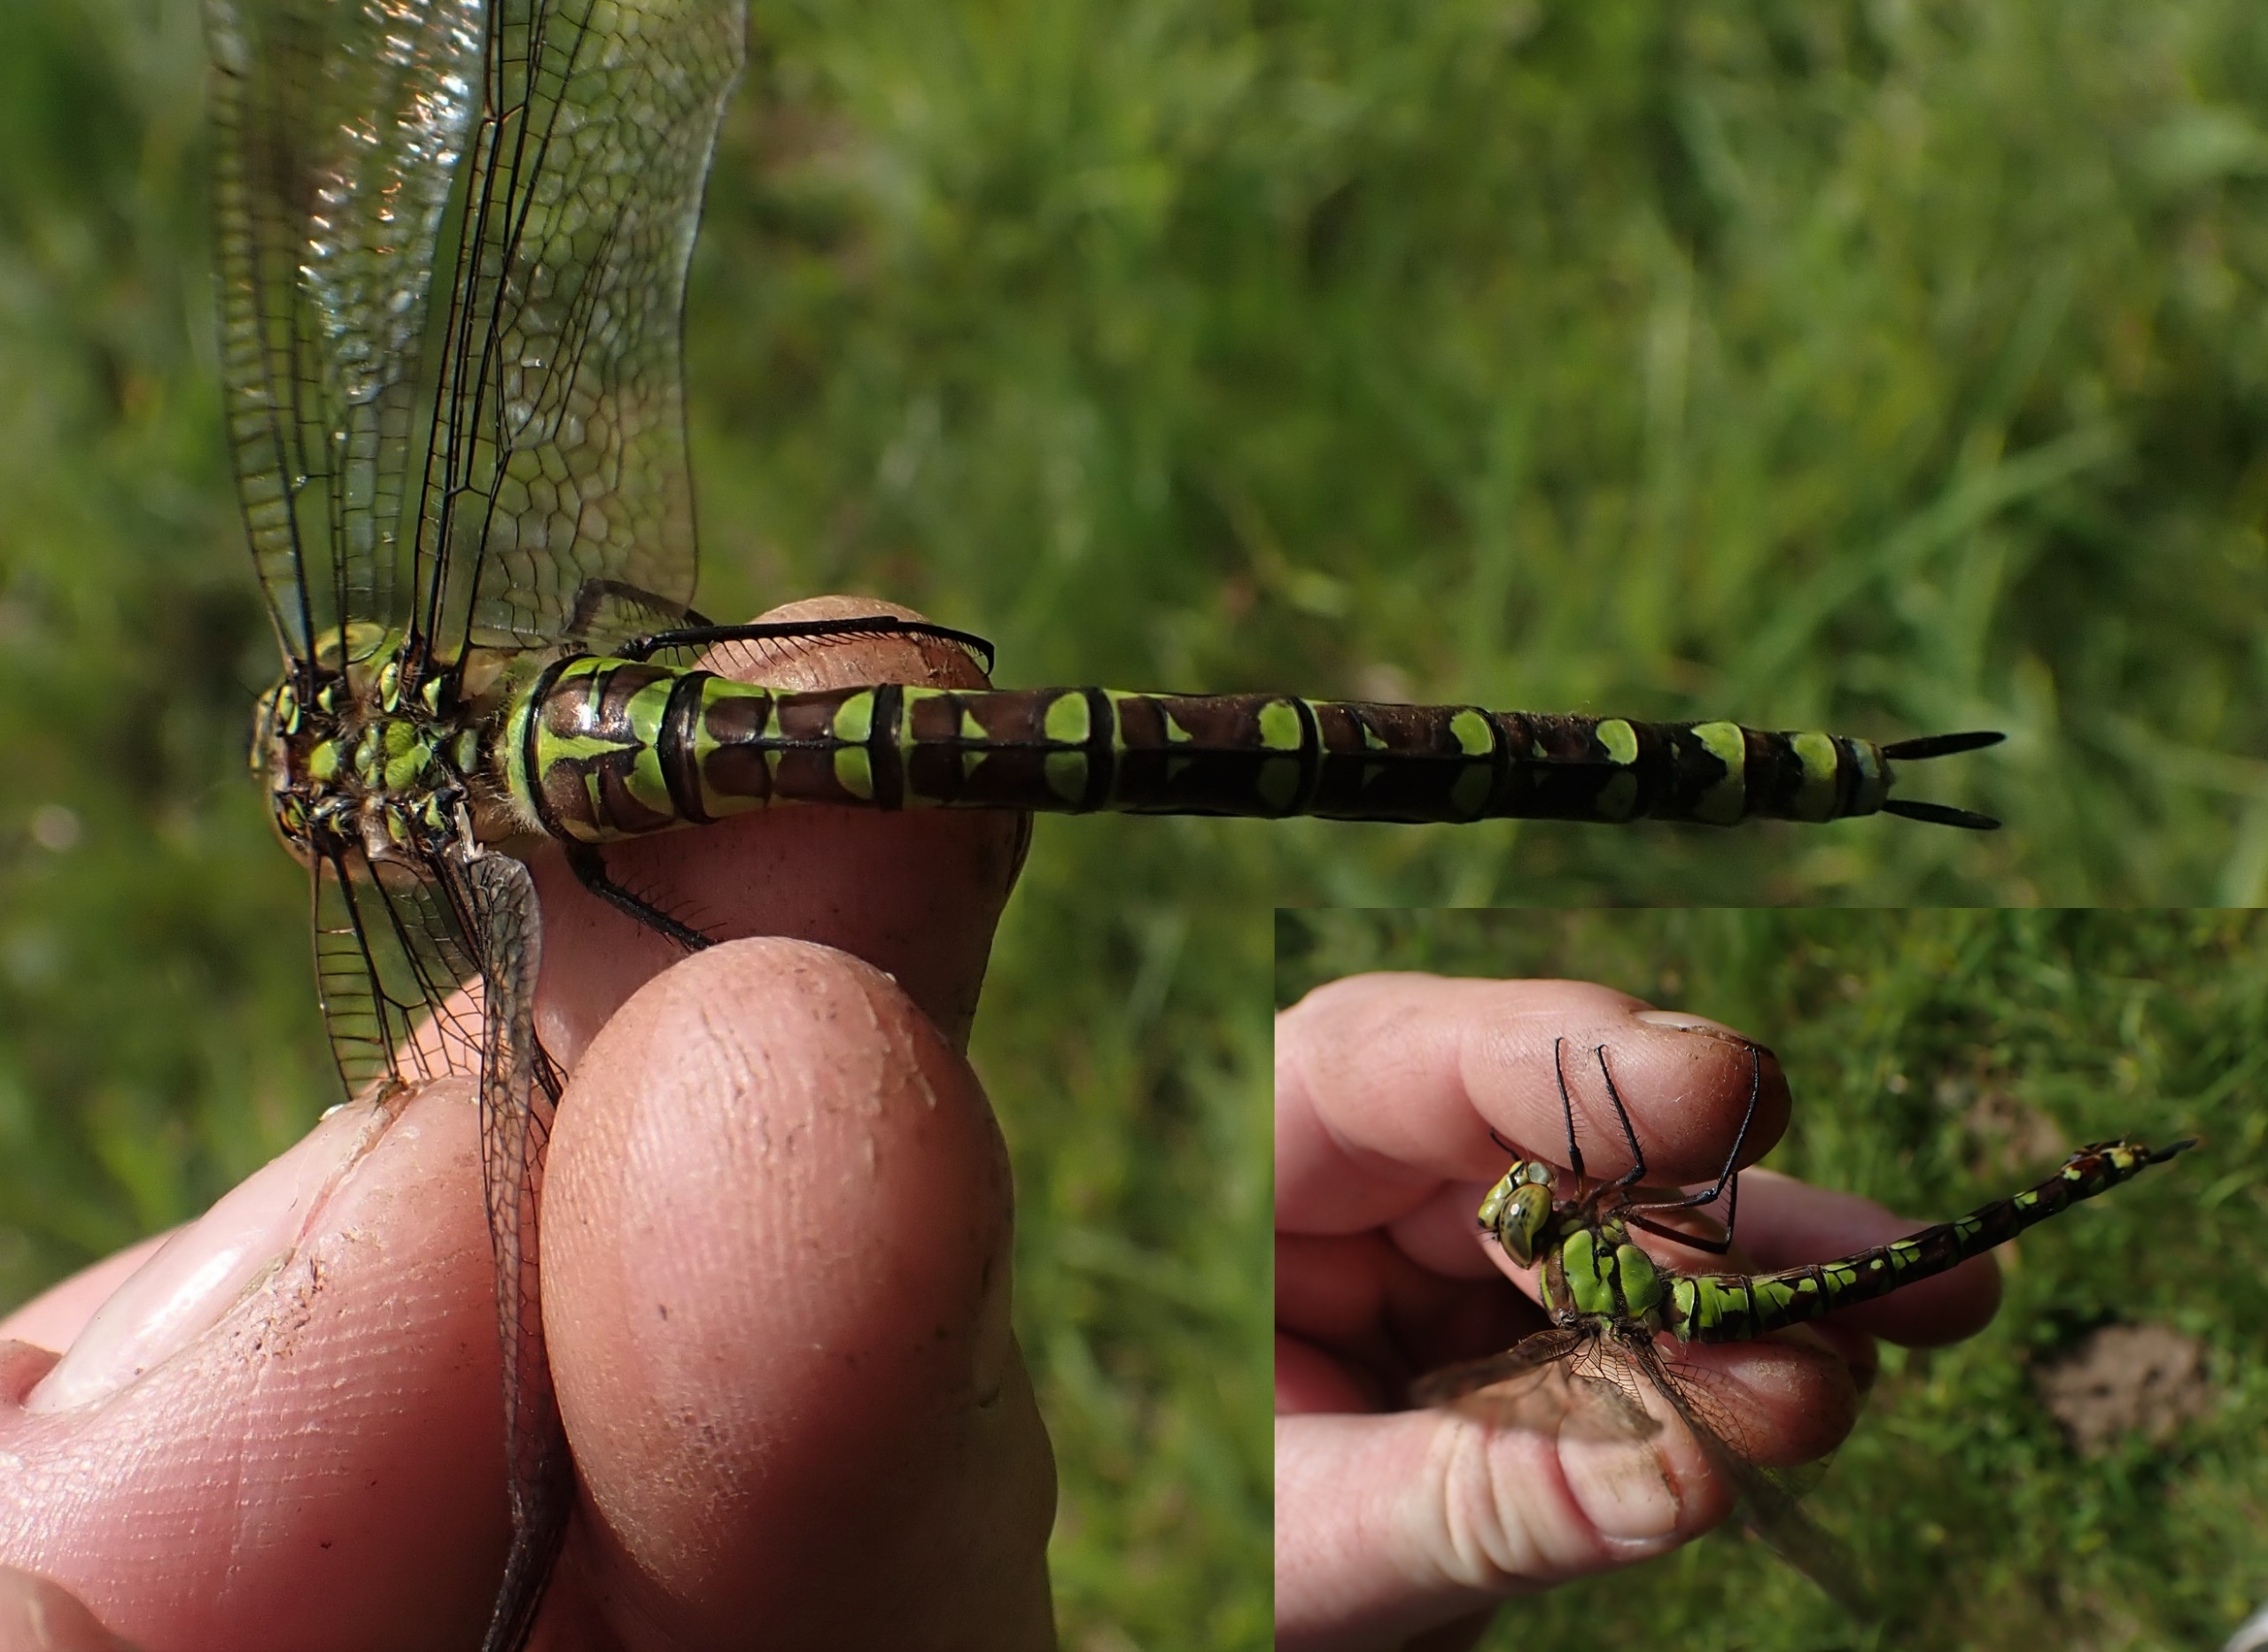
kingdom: Animalia
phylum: Arthropoda
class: Insecta
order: Odonata
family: Aeshnidae
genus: Aeshna
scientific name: Aeshna cyanea
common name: Blå mosaikguldsmed
